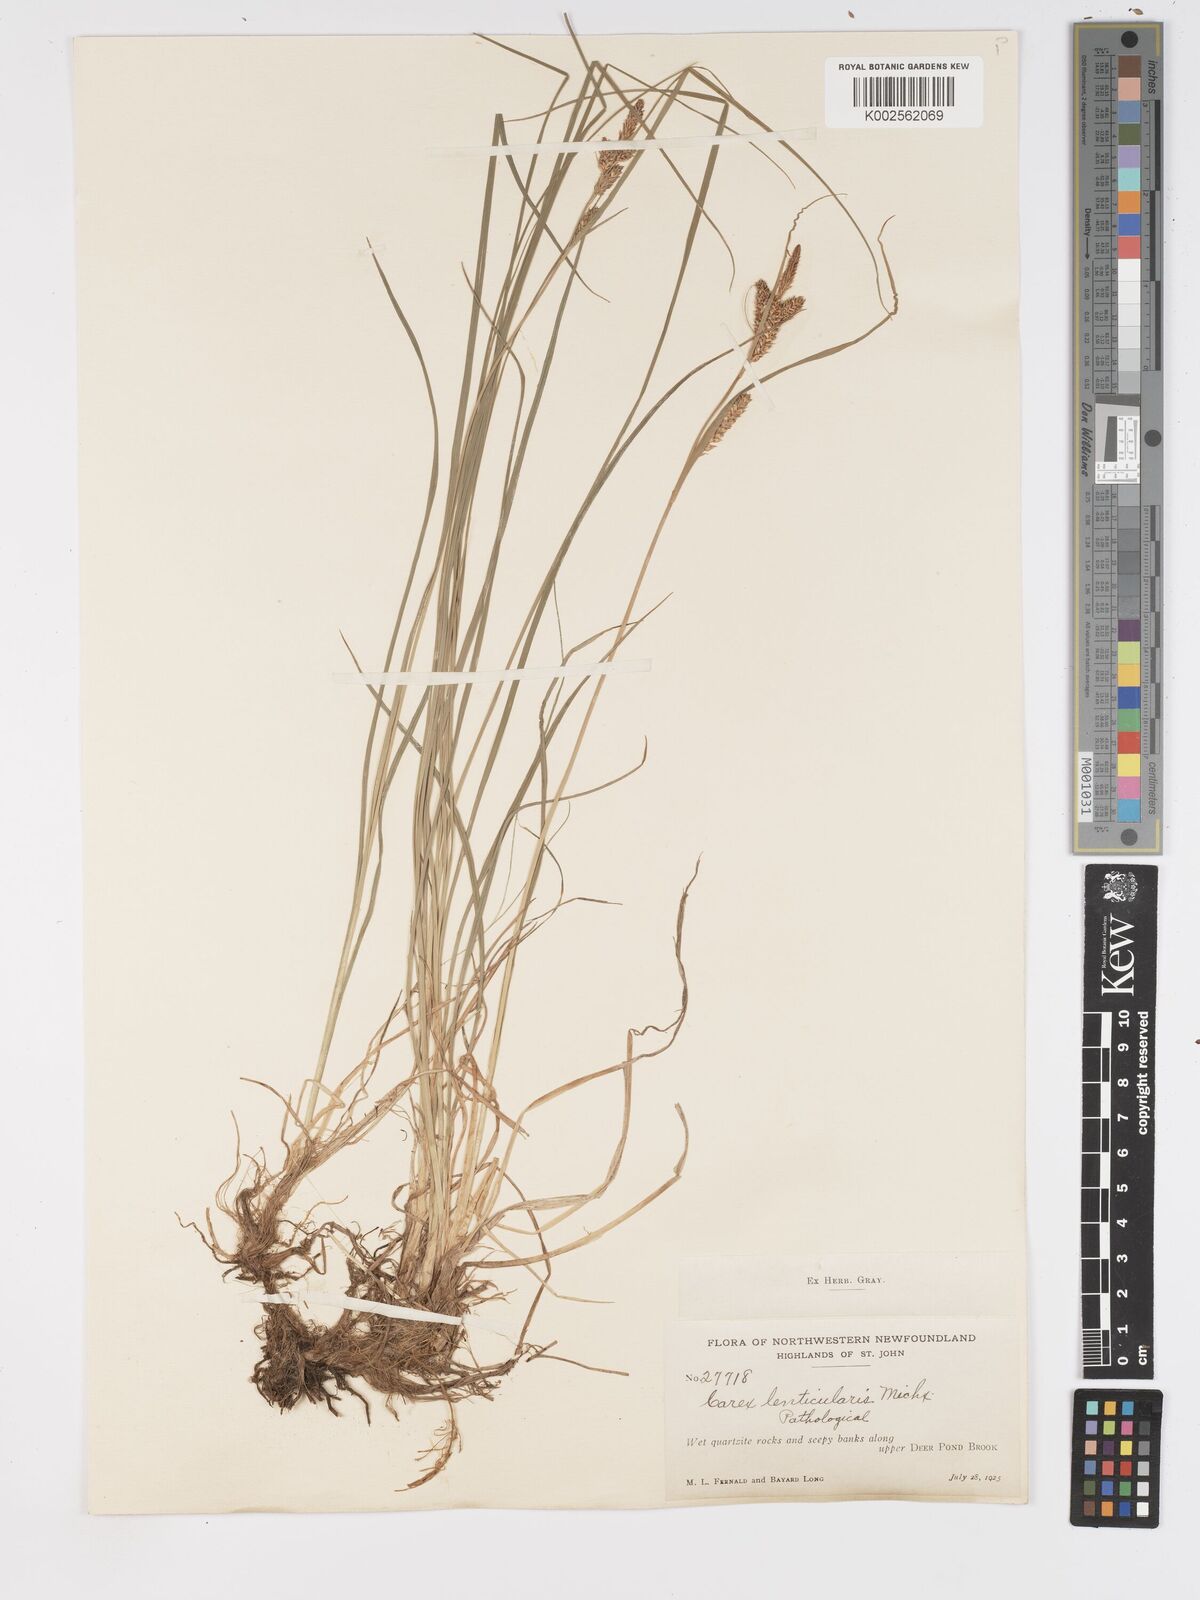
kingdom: Plantae
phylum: Tracheophyta
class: Liliopsida
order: Poales
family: Cyperaceae
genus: Carex
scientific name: Carex lenticularis
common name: Lakeshore sedge
